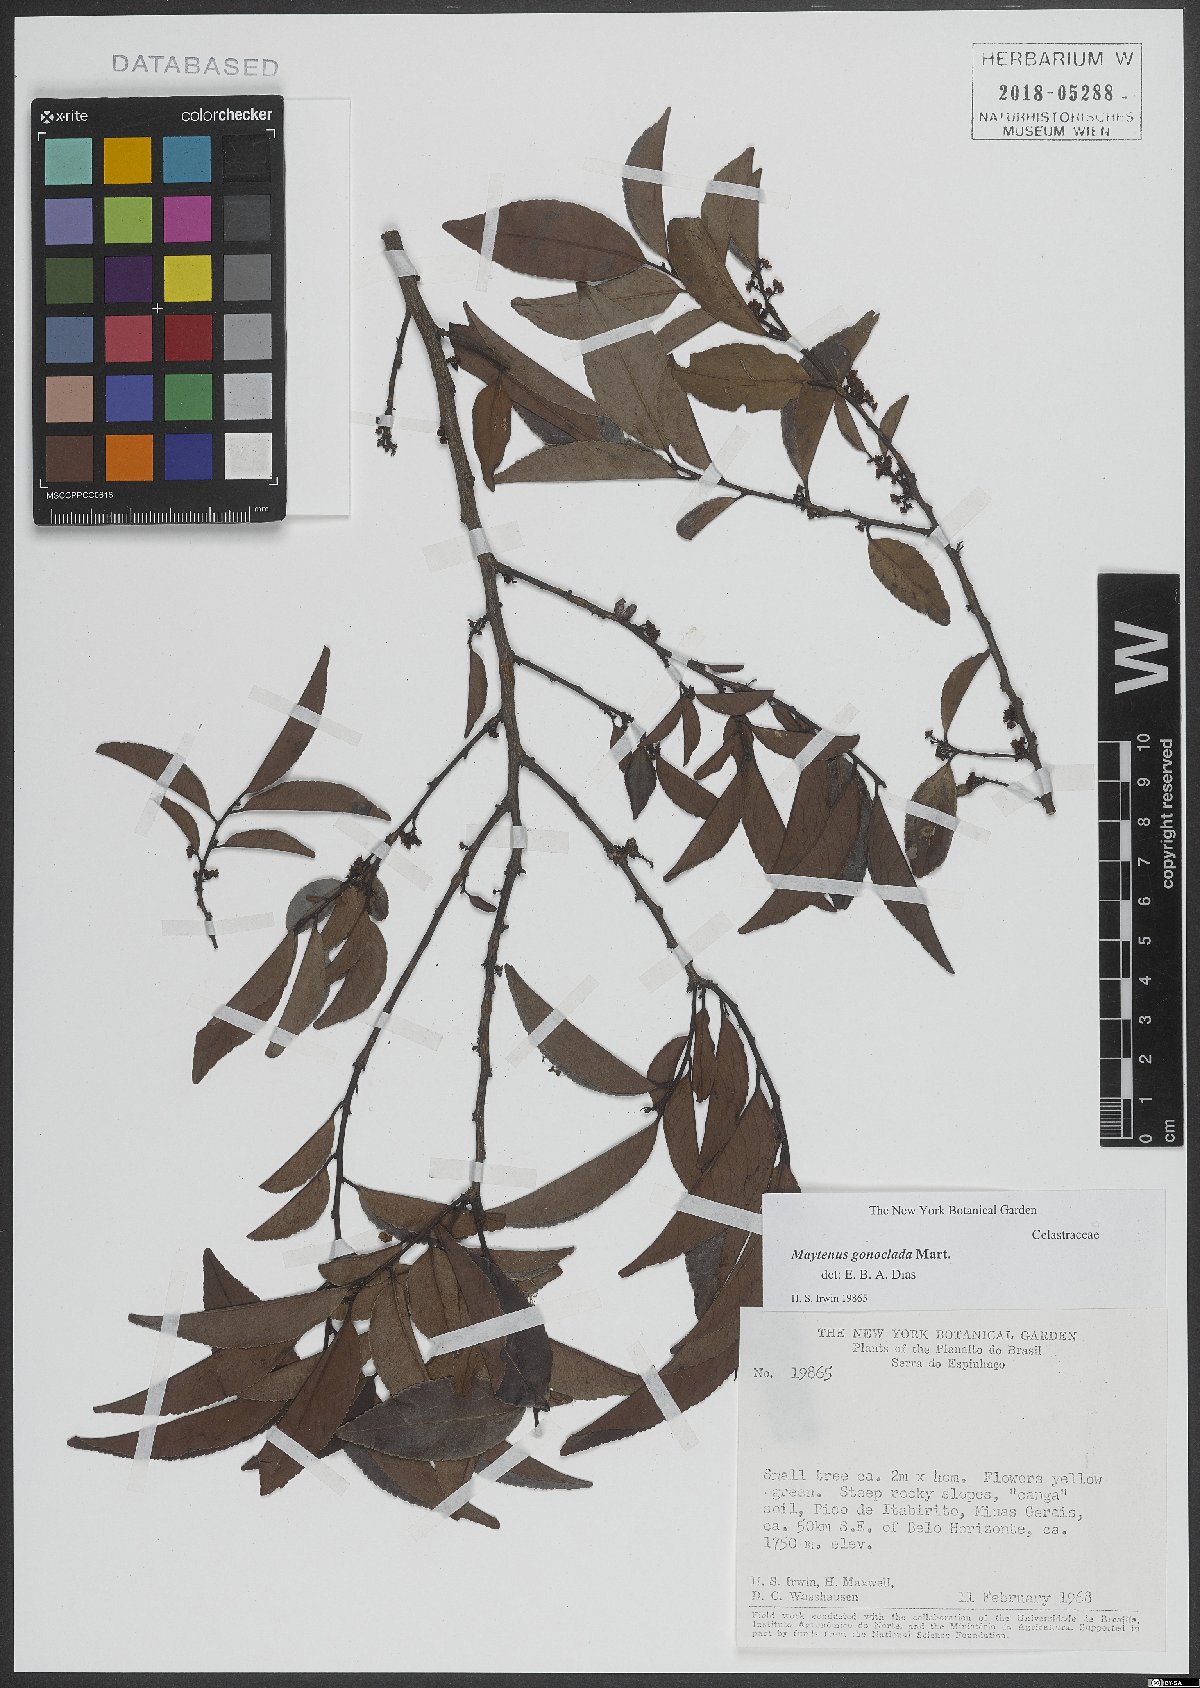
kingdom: Plantae
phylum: Tracheophyta
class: Magnoliopsida
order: Celastrales
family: Celastraceae
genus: Monteverdia
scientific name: Monteverdia gonoclada
